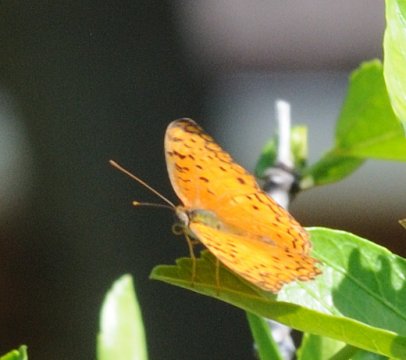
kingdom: Animalia
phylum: Arthropoda
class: Insecta
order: Lepidoptera
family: Nymphalidae
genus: Phalanta
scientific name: Phalanta phalantha
